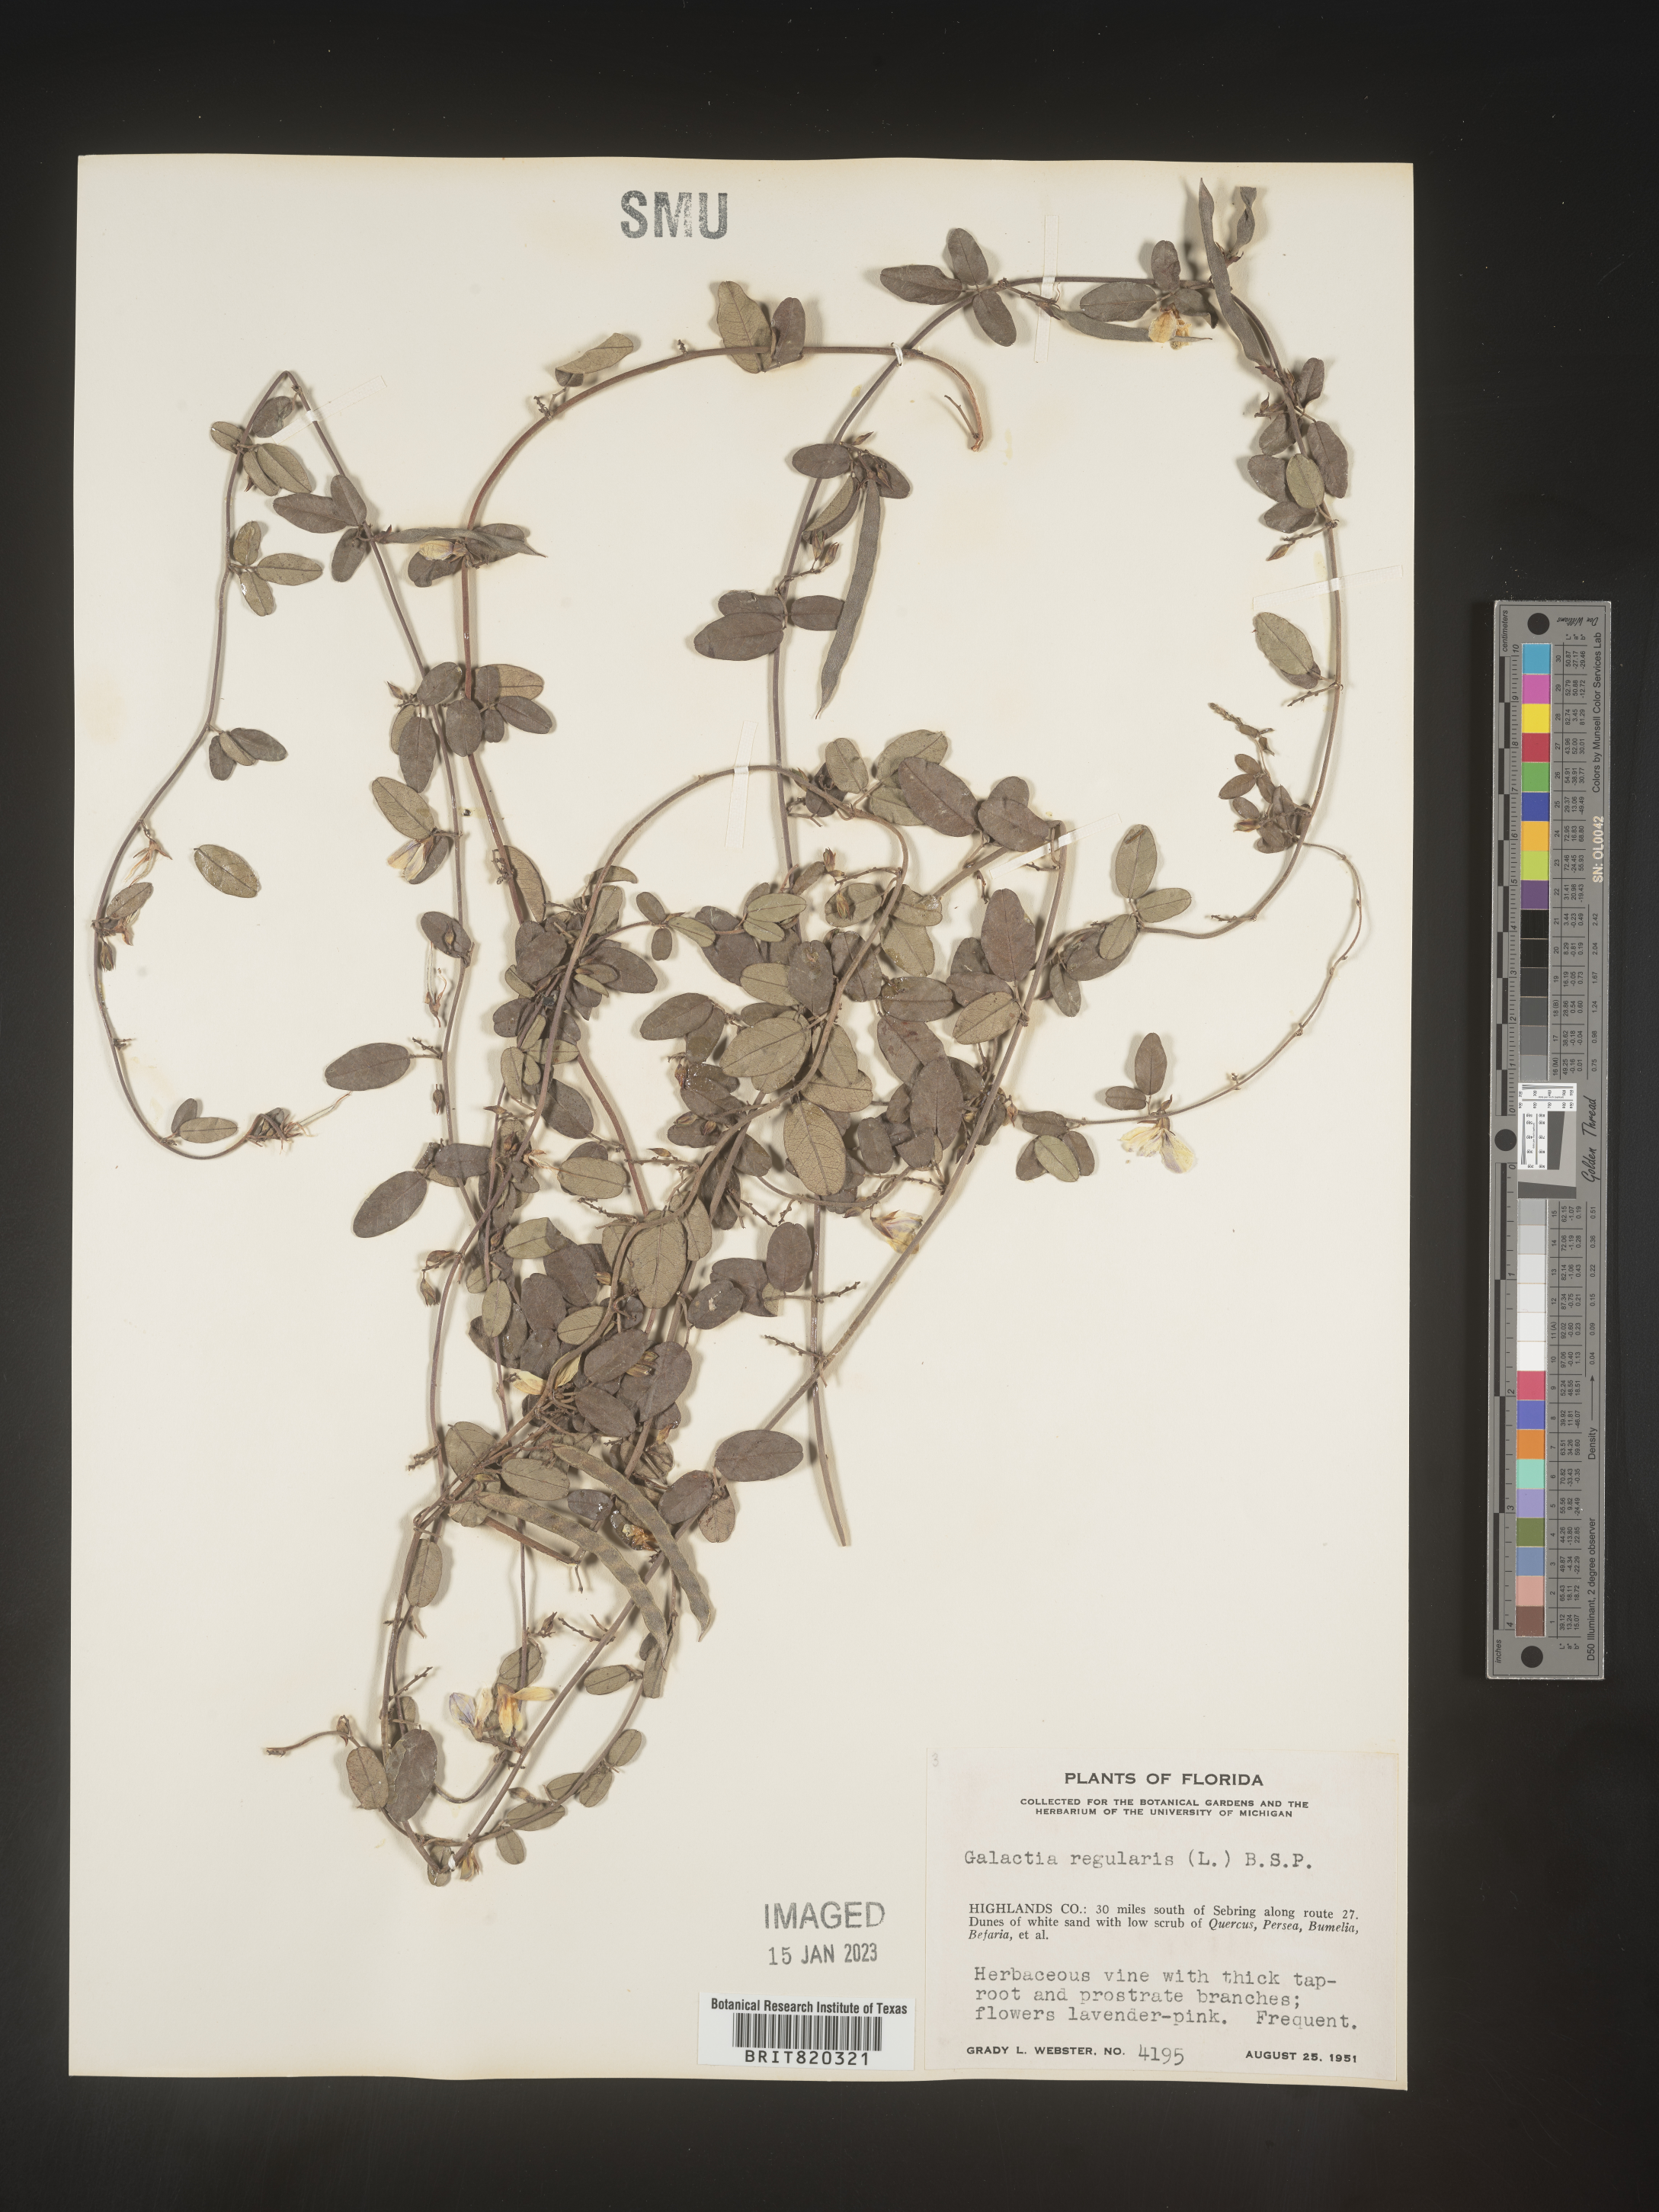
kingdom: Plantae
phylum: Tracheophyta
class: Magnoliopsida
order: Fabales
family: Fabaceae
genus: Galactia
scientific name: Galactia regularis
